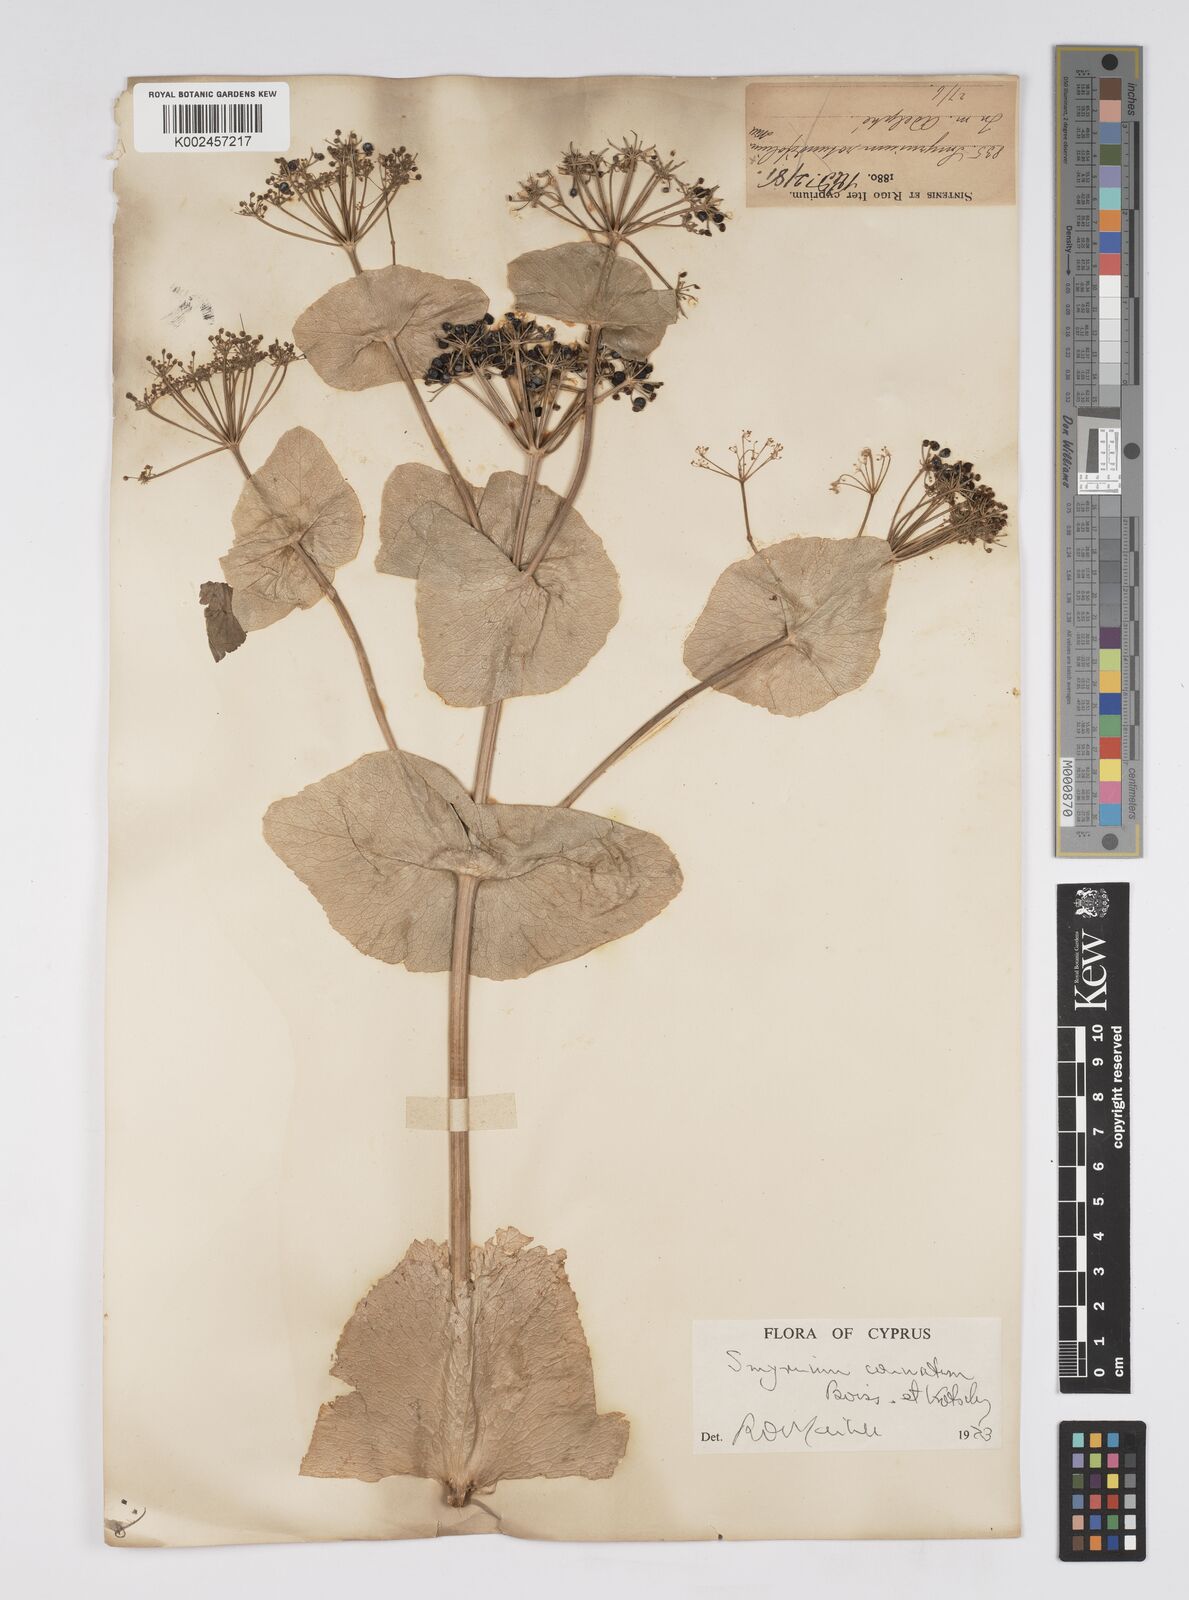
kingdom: Plantae
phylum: Tracheophyta
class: Magnoliopsida
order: Apiales
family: Apiaceae
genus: Smyrnium
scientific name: Smyrnium connatum
